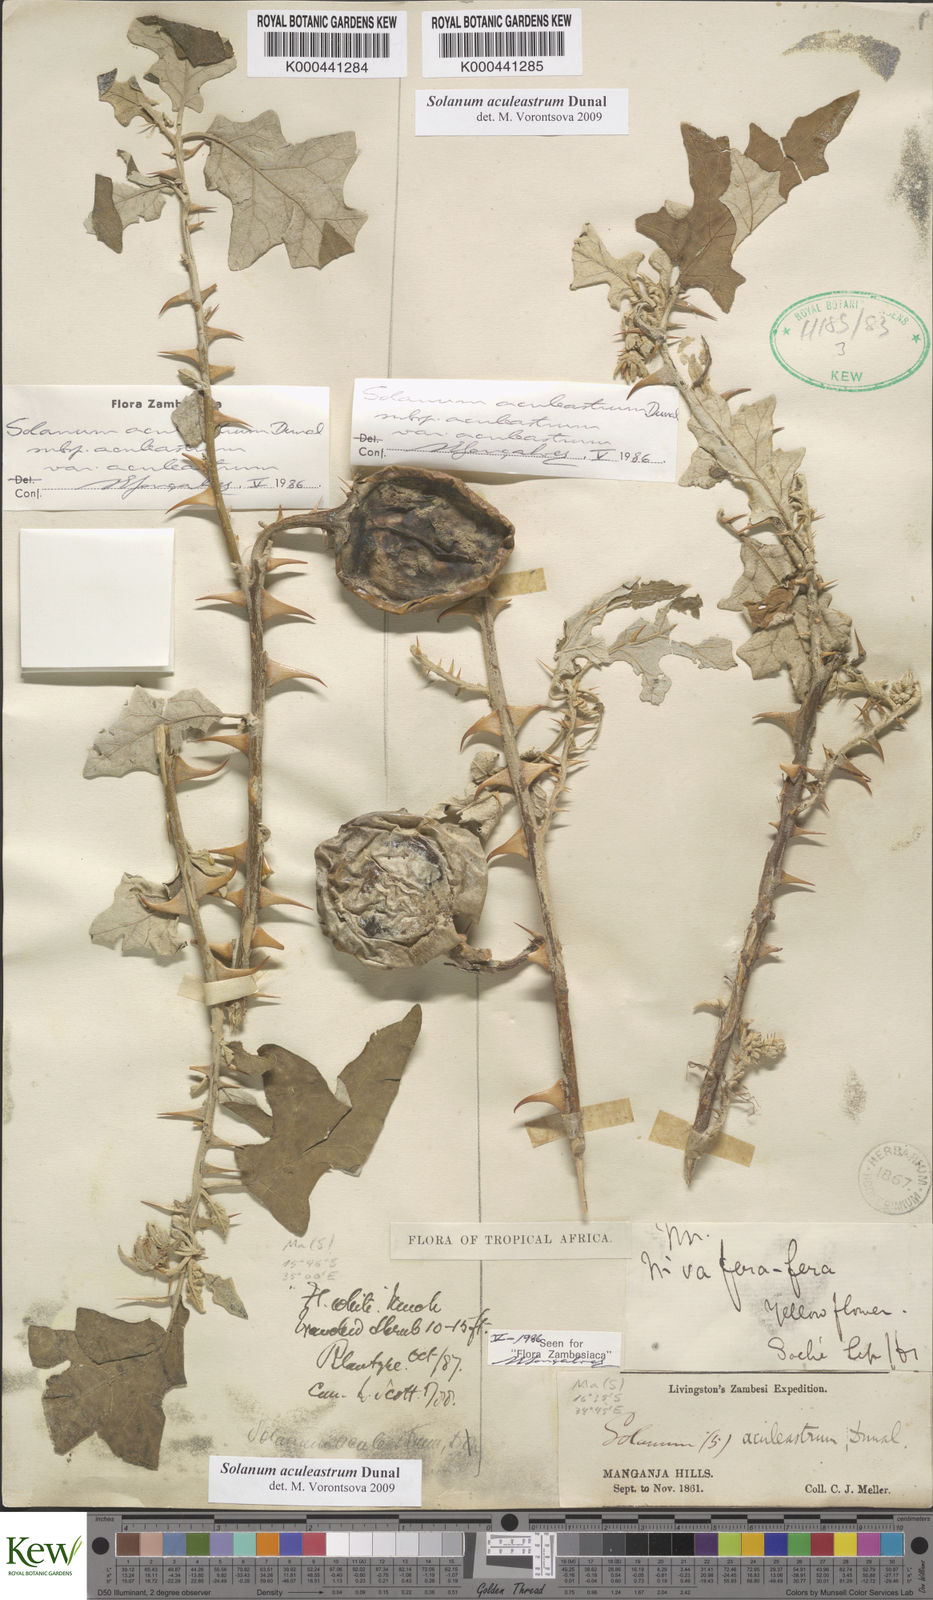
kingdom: Plantae
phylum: Tracheophyta
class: Magnoliopsida
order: Solanales
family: Solanaceae
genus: Solanum
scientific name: Solanum aculeastrum
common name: Goat bitter-apple
